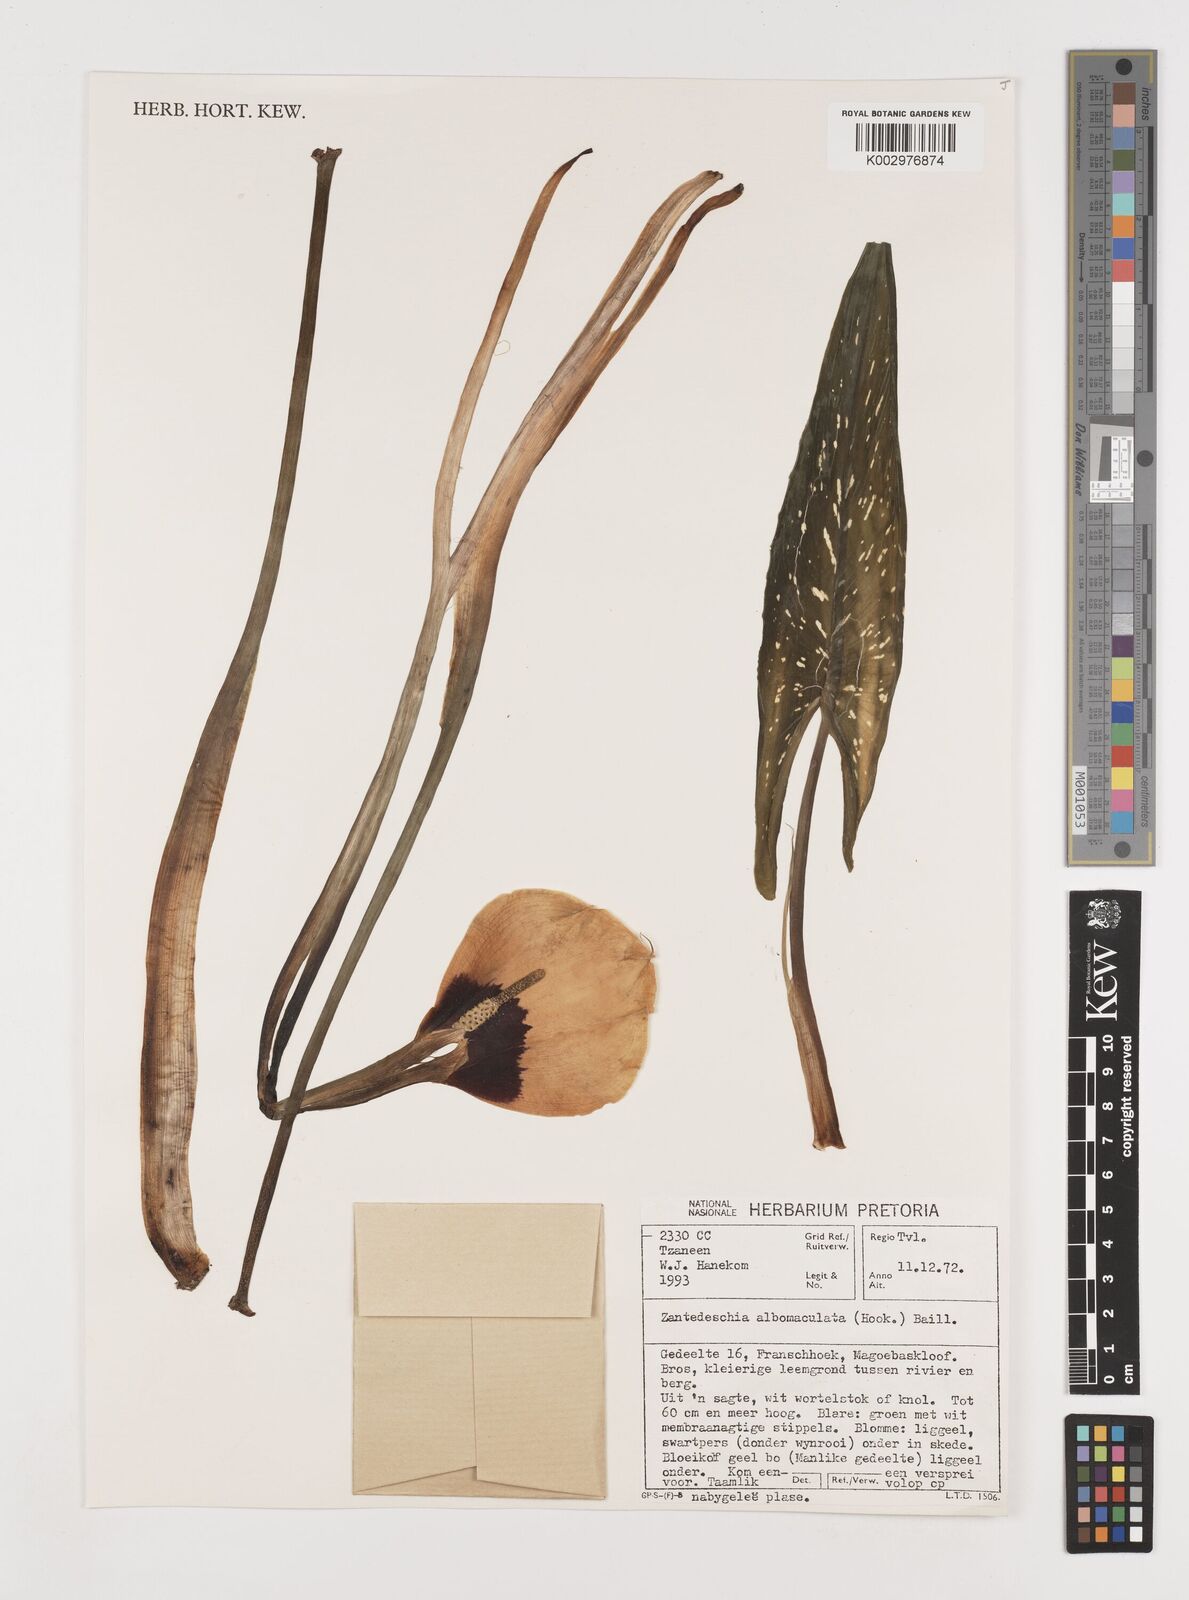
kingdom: Plantae
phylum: Tracheophyta
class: Liliopsida
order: Alismatales
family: Araceae
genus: Zantedeschia
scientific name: Zantedeschia albomaculata
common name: Spotted calla lily
